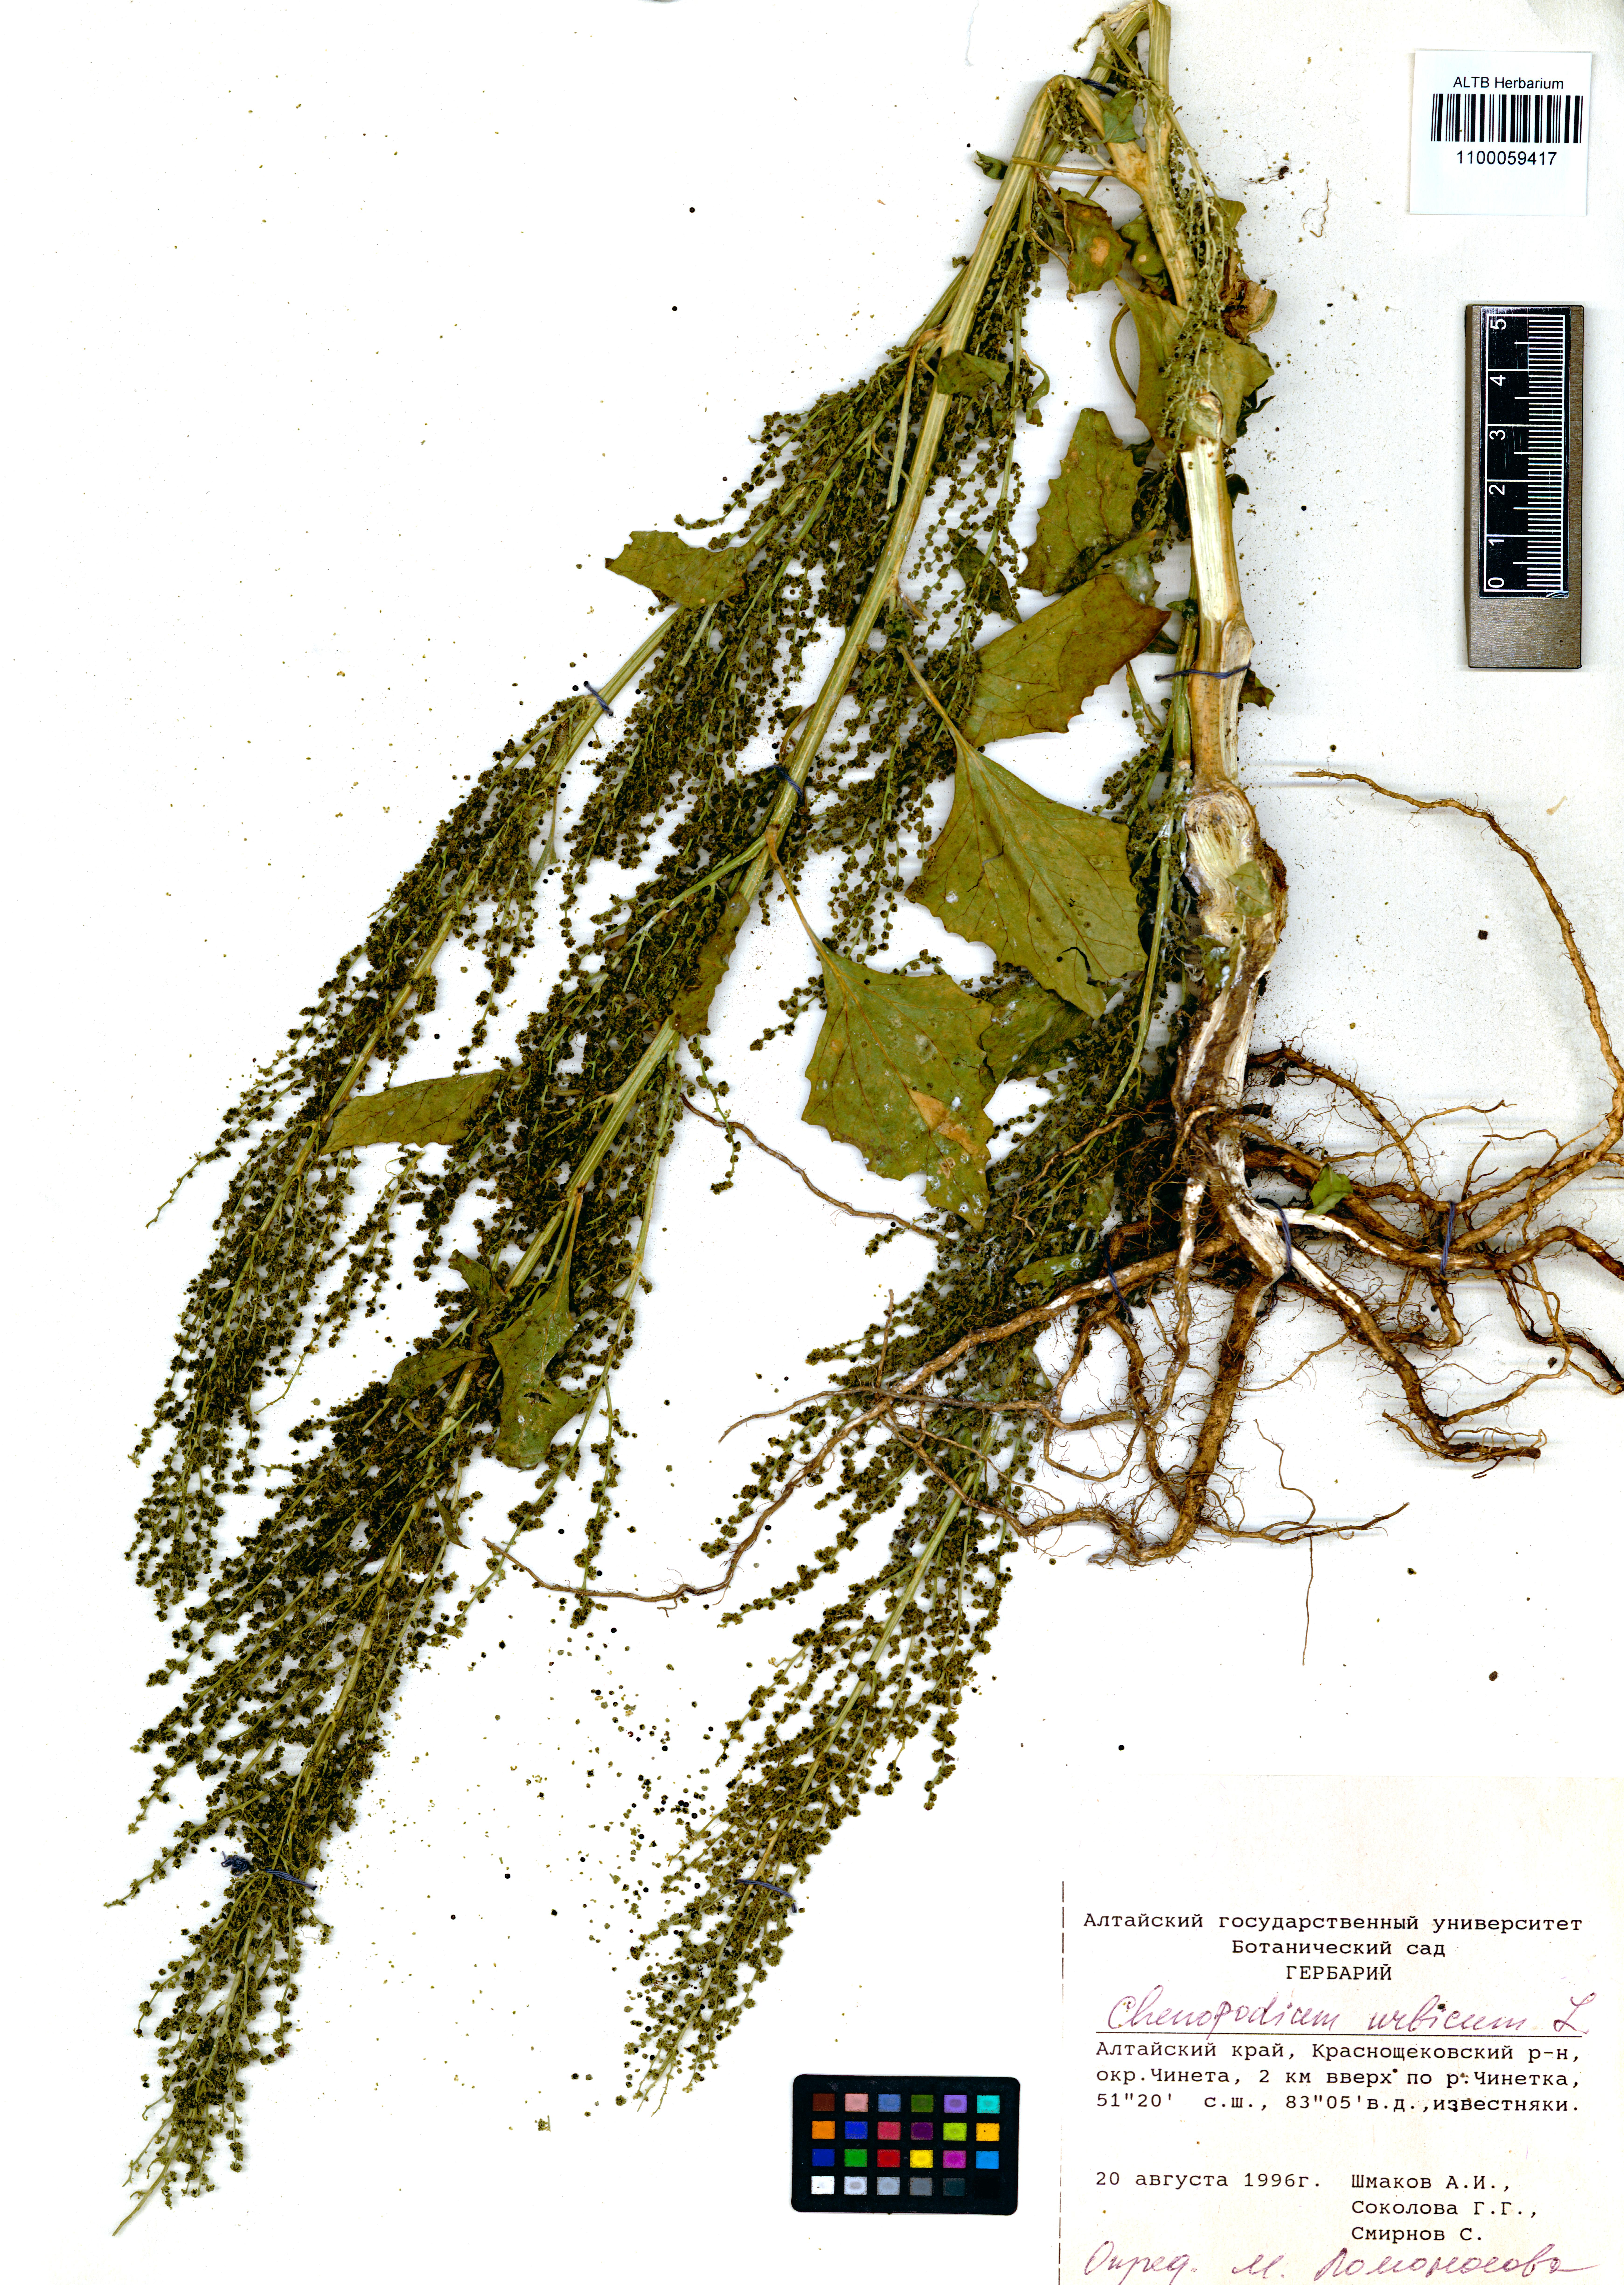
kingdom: Plantae
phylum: Tracheophyta
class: Magnoliopsida
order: Caryophyllales
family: Amaranthaceae
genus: Oxybasis
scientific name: Oxybasis urbica
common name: City goosefoot
